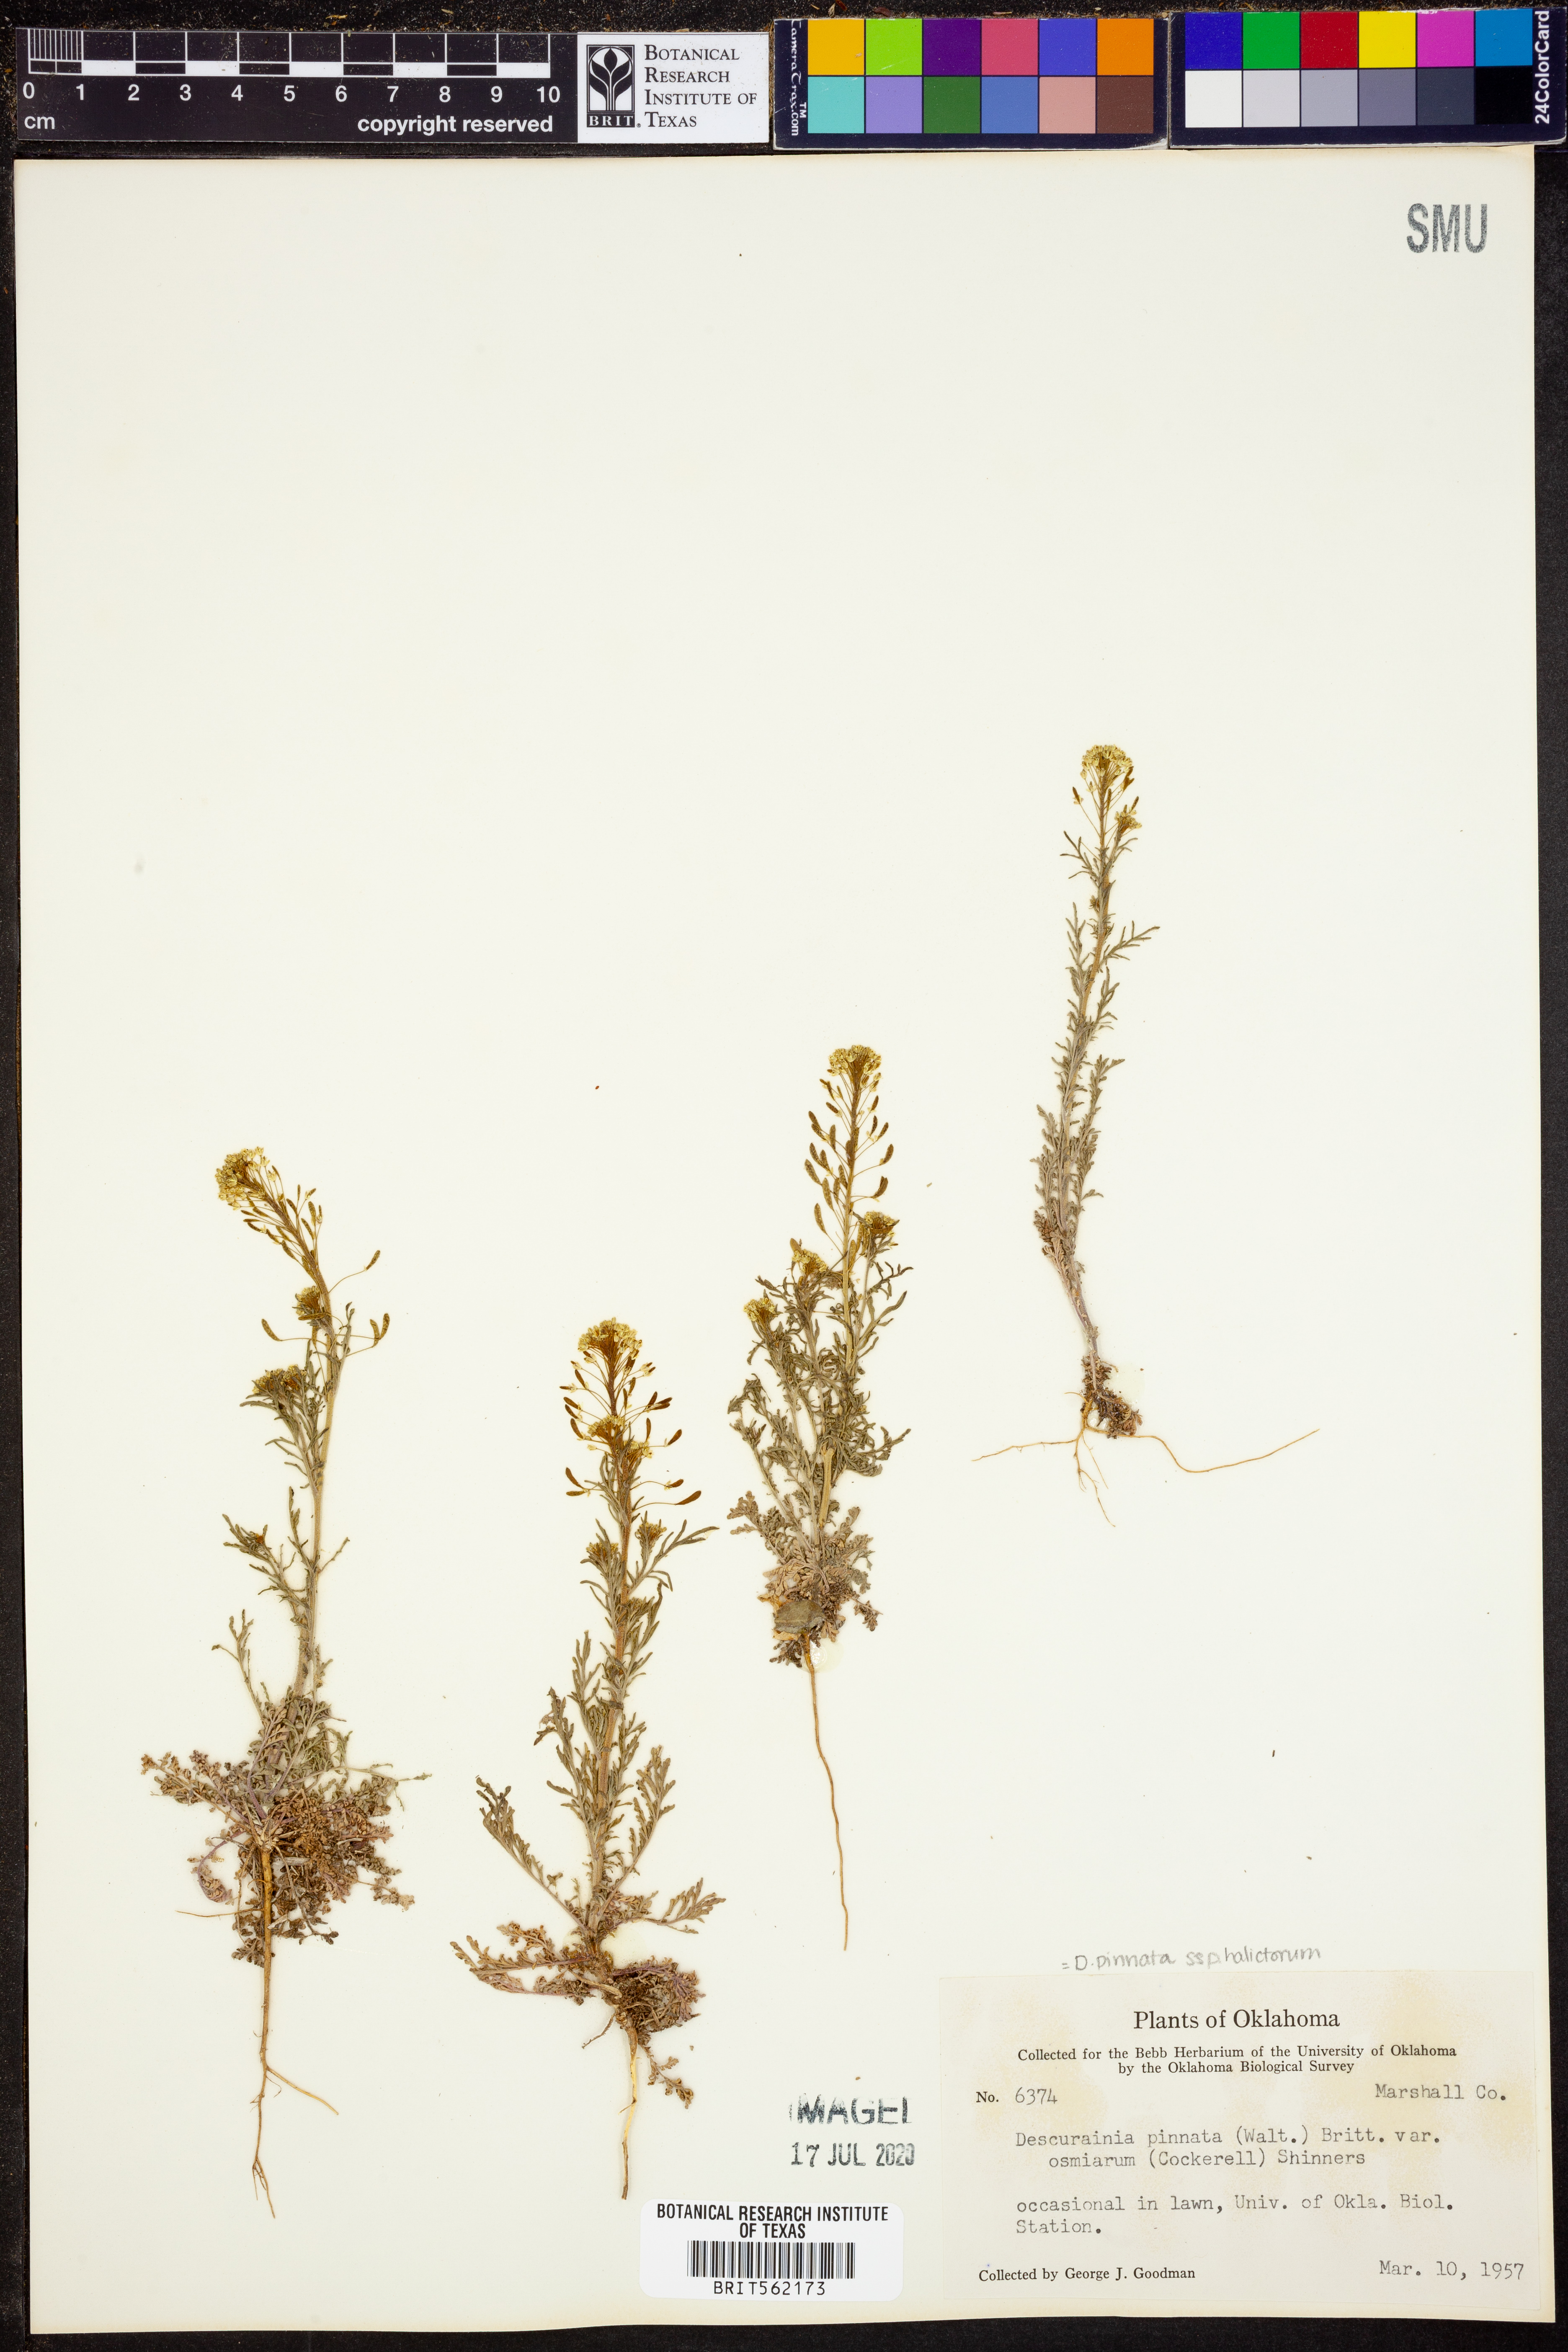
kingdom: Plantae
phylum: Tracheophyta
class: Magnoliopsida
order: Brassicales
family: Brassicaceae
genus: Descurainia
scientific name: Descurainia pinnata
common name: Western tansy mustard
